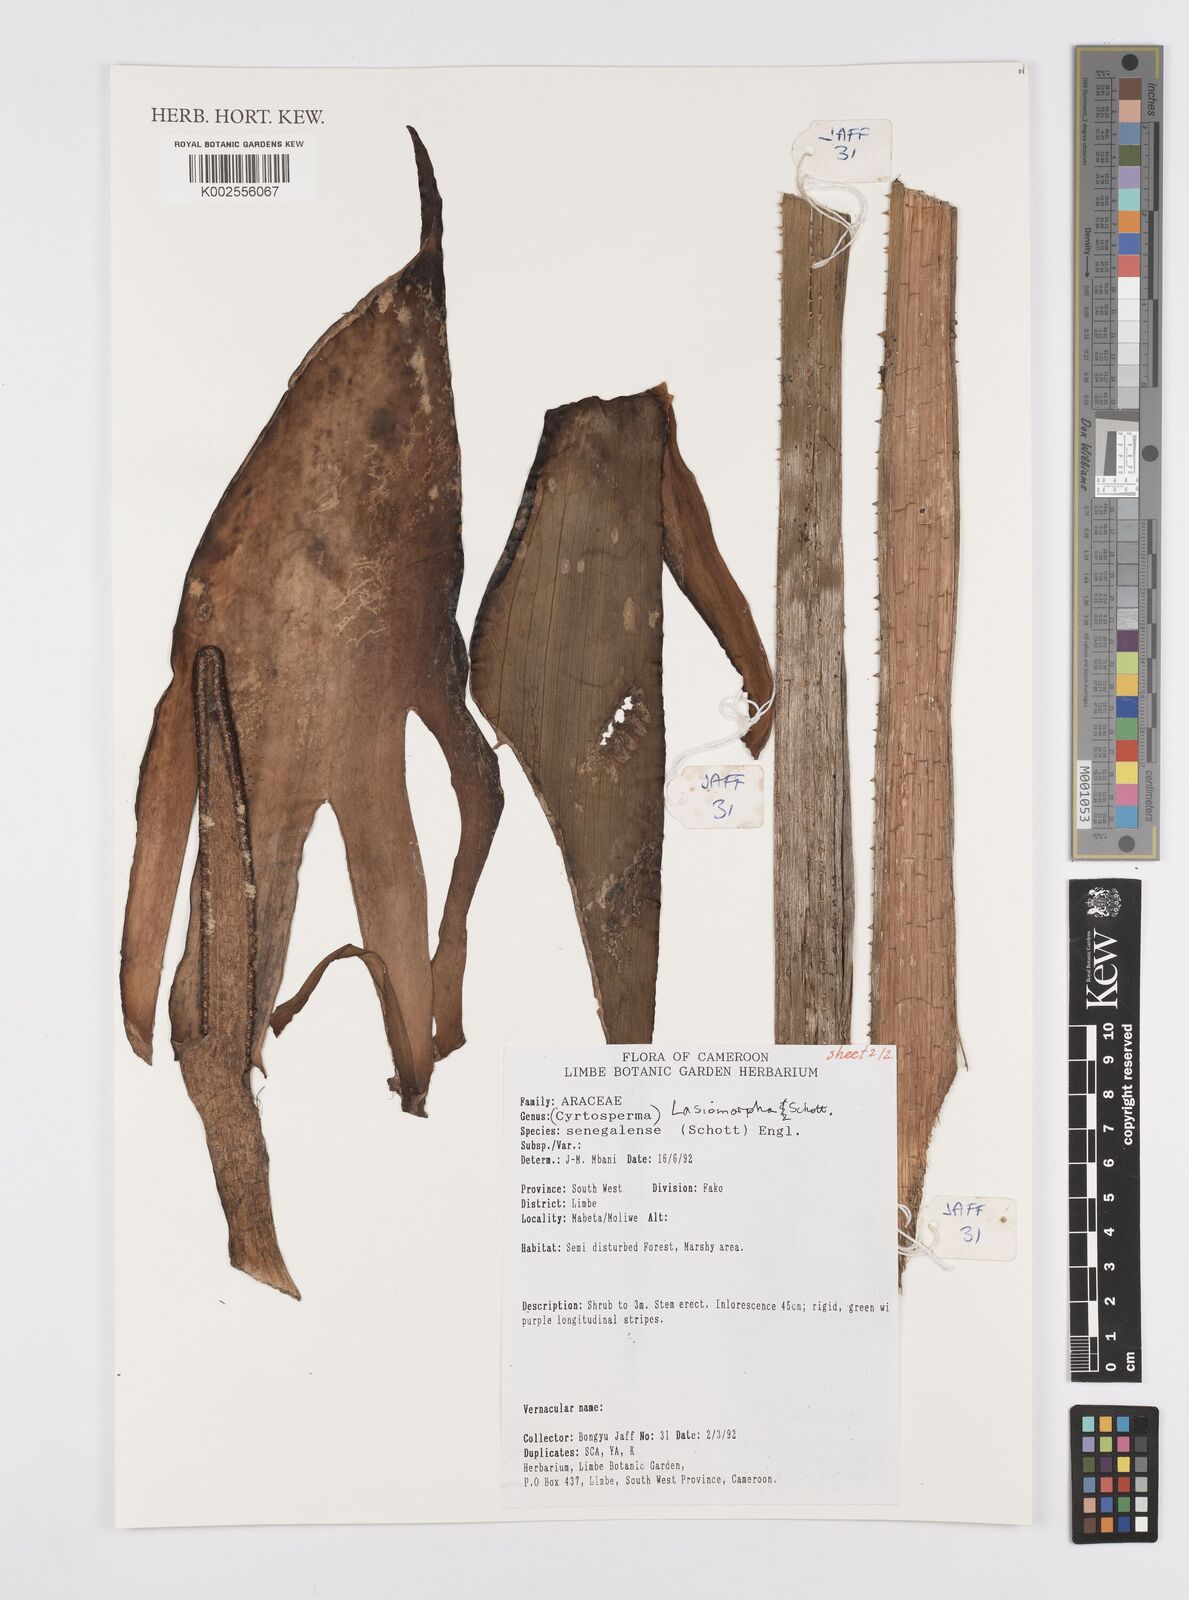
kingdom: Plantae
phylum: Tracheophyta
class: Liliopsida
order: Alismatales
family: Araceae
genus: Lasimorpha
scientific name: Lasimorpha senegalensis
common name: Swamp arum
